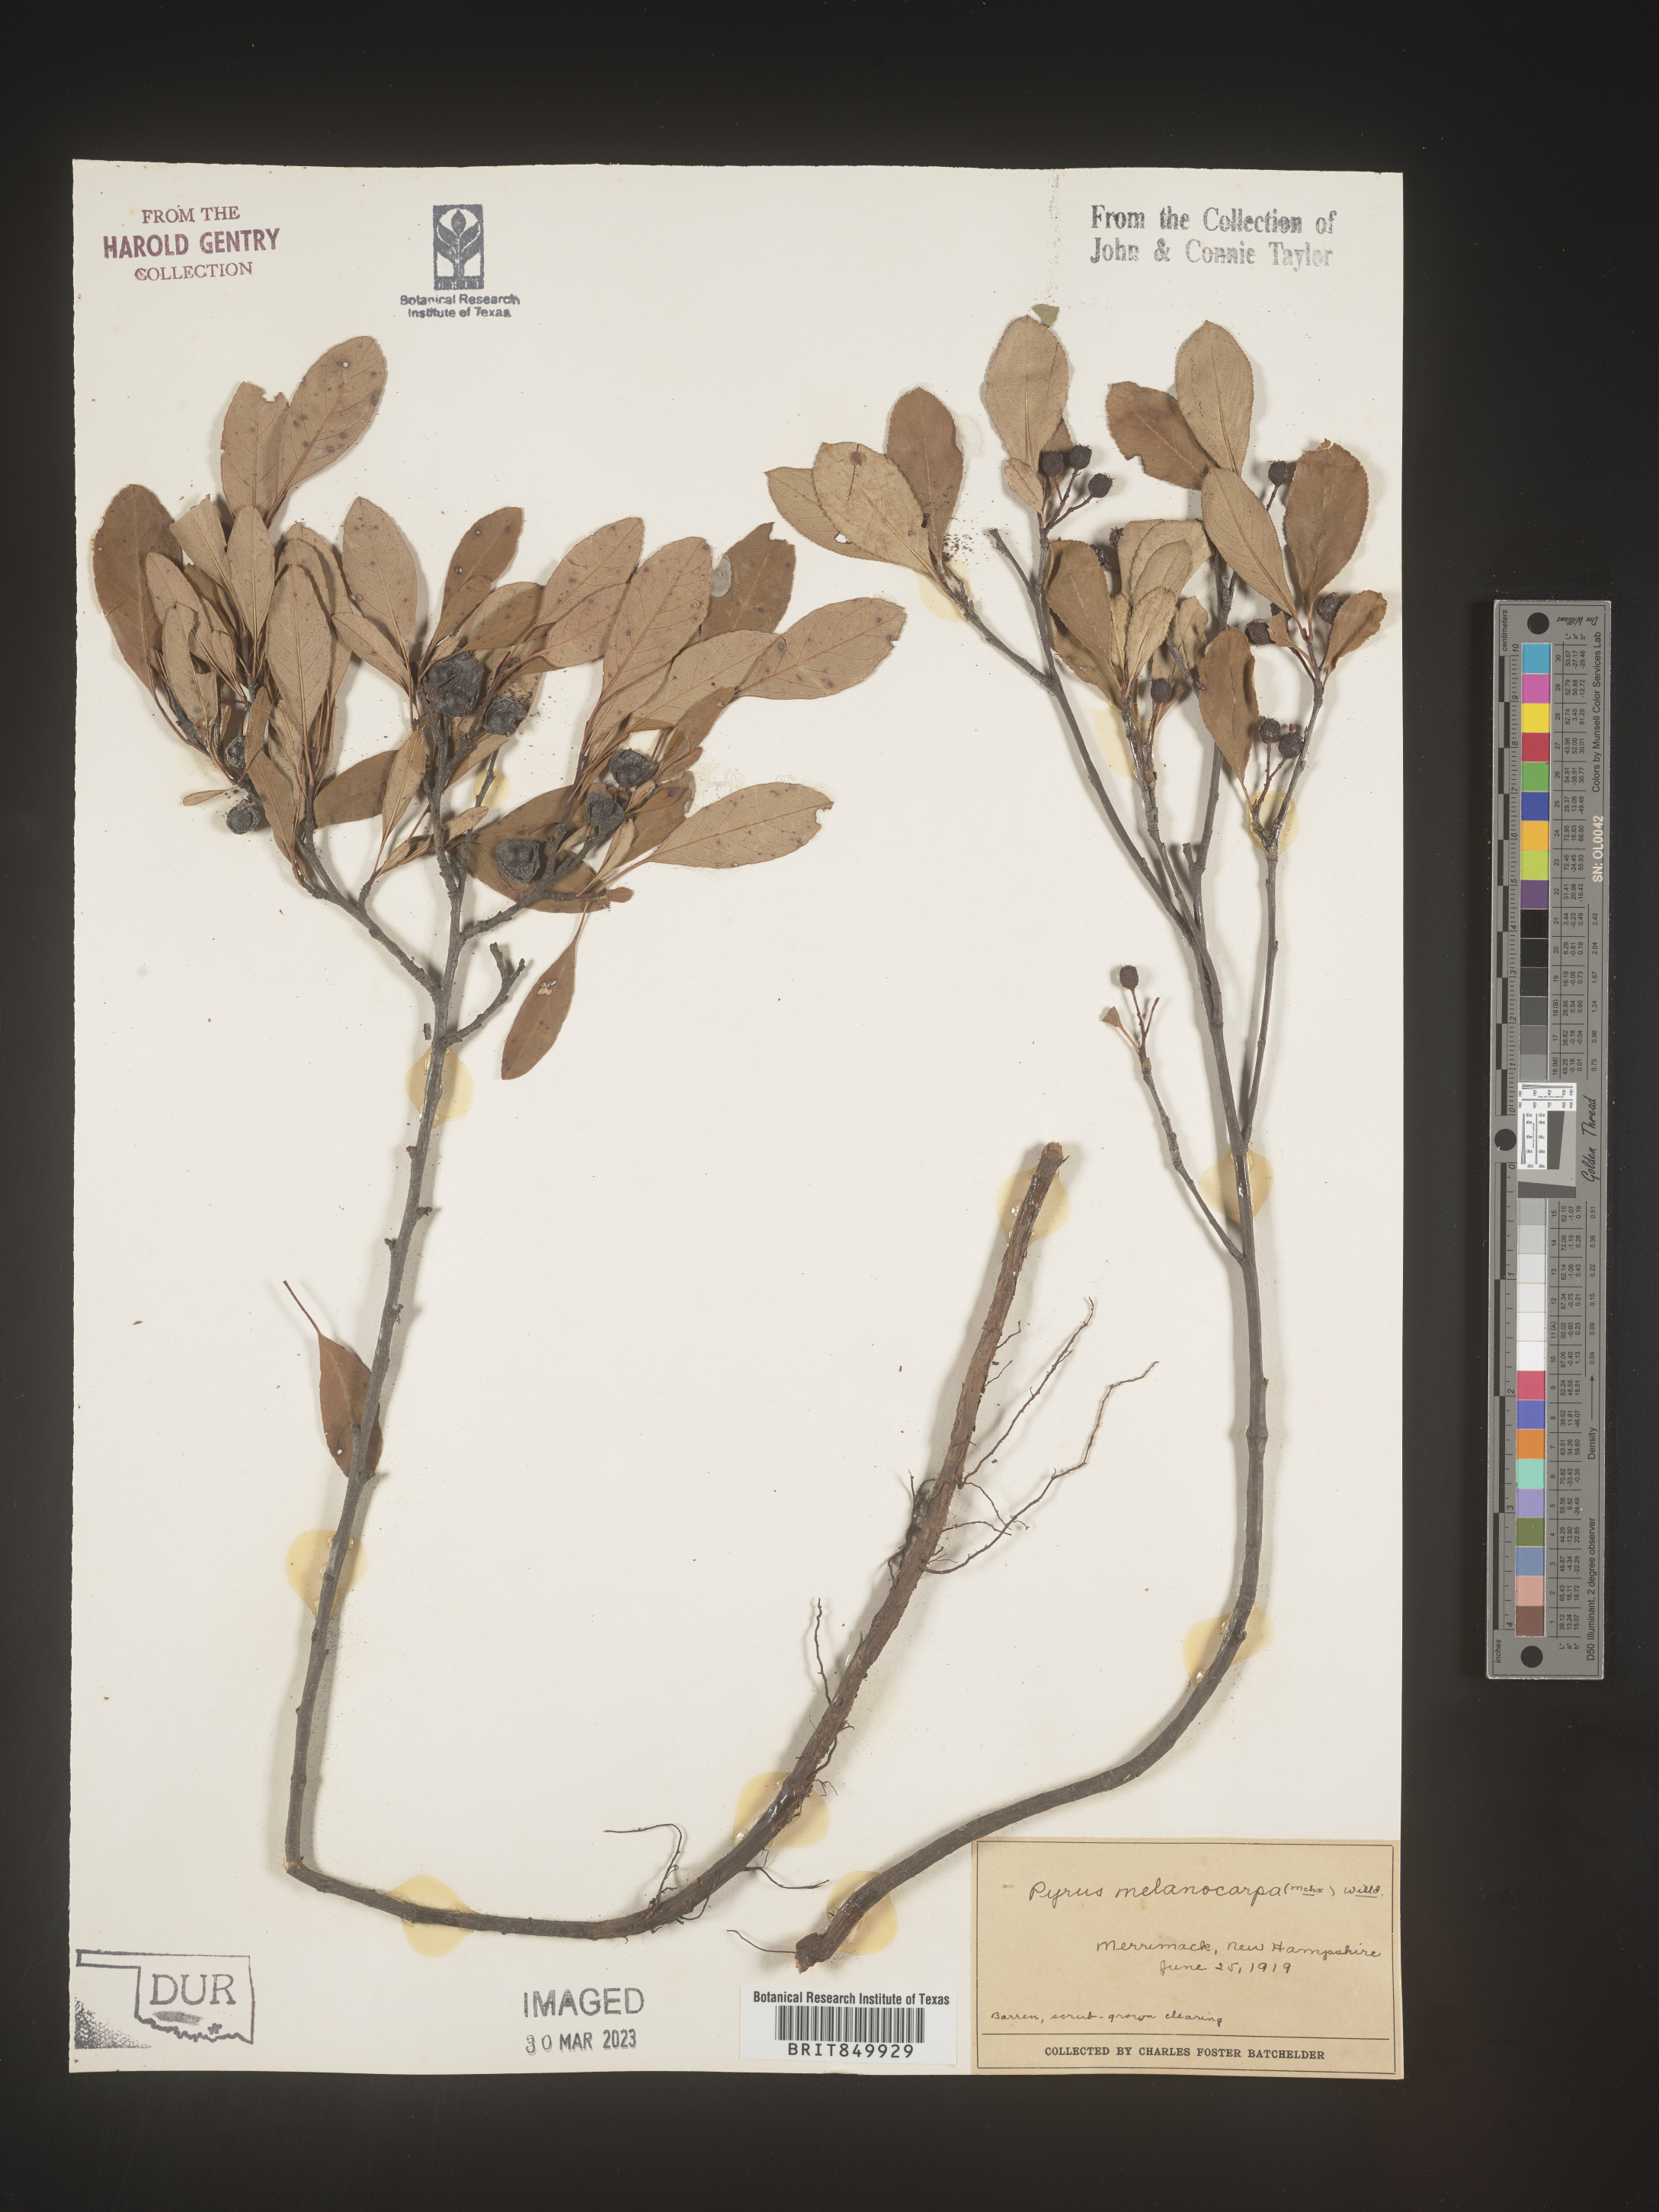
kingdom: Plantae
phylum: Tracheophyta
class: Magnoliopsida
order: Rosales
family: Rosaceae
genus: Pyrus
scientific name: Pyrus
